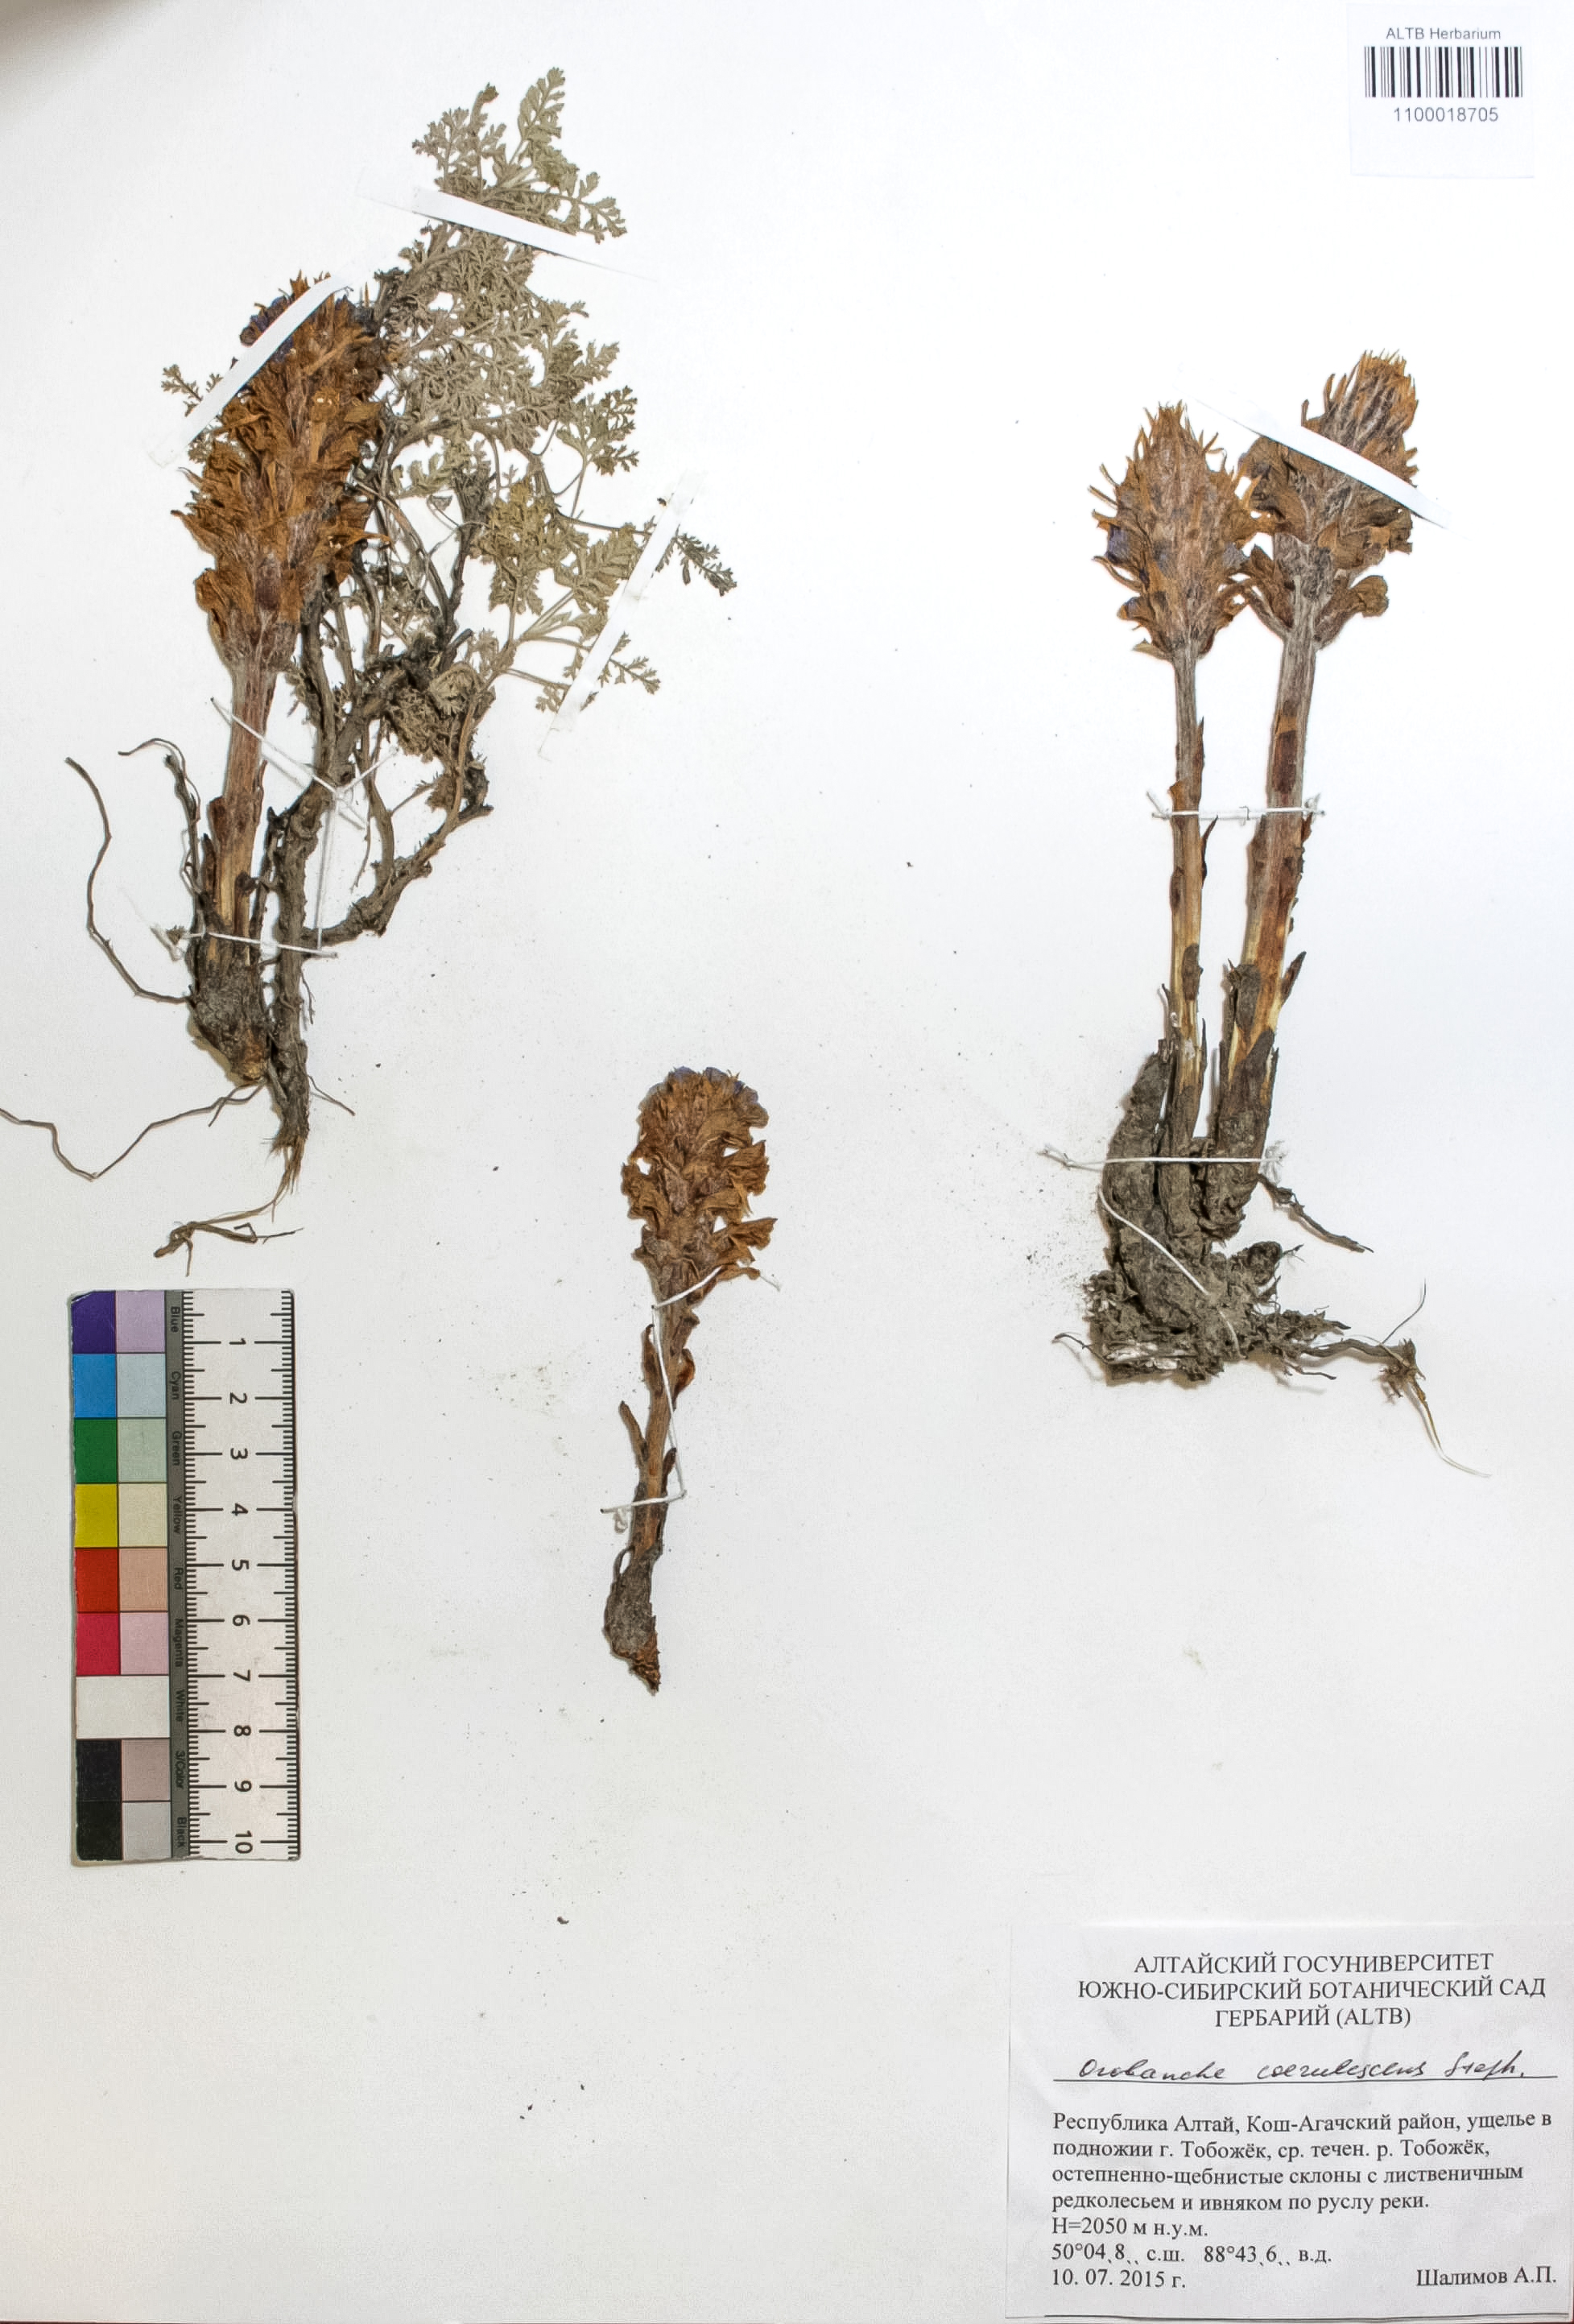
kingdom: Plantae
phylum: Tracheophyta
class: Magnoliopsida
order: Lamiales
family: Orobanchaceae
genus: Orobanche
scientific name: Orobanche coerulescens
